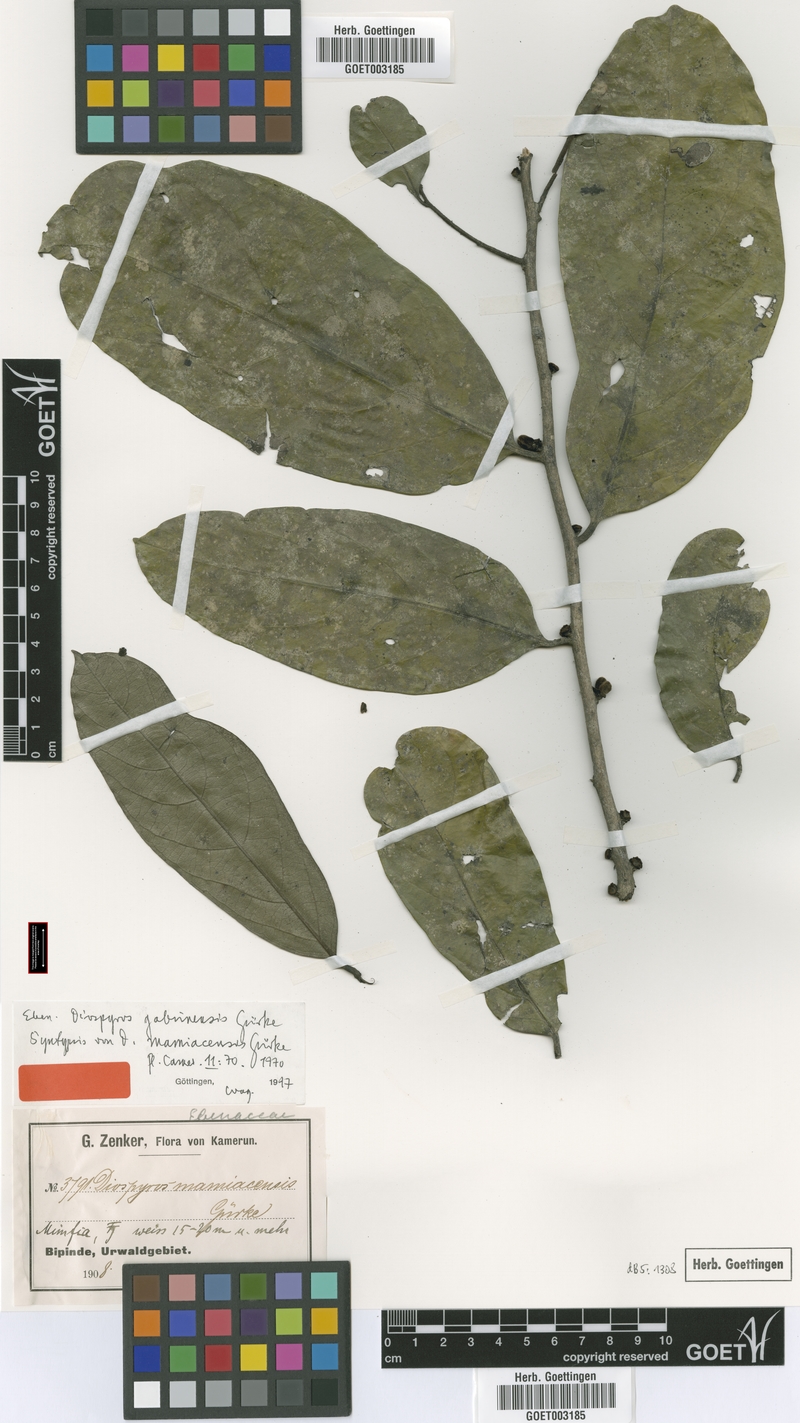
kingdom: Plantae
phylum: Tracheophyta
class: Magnoliopsida
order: Ericales
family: Ebenaceae
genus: Diospyros
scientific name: Diospyros gabunensis
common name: Flint bark tree
